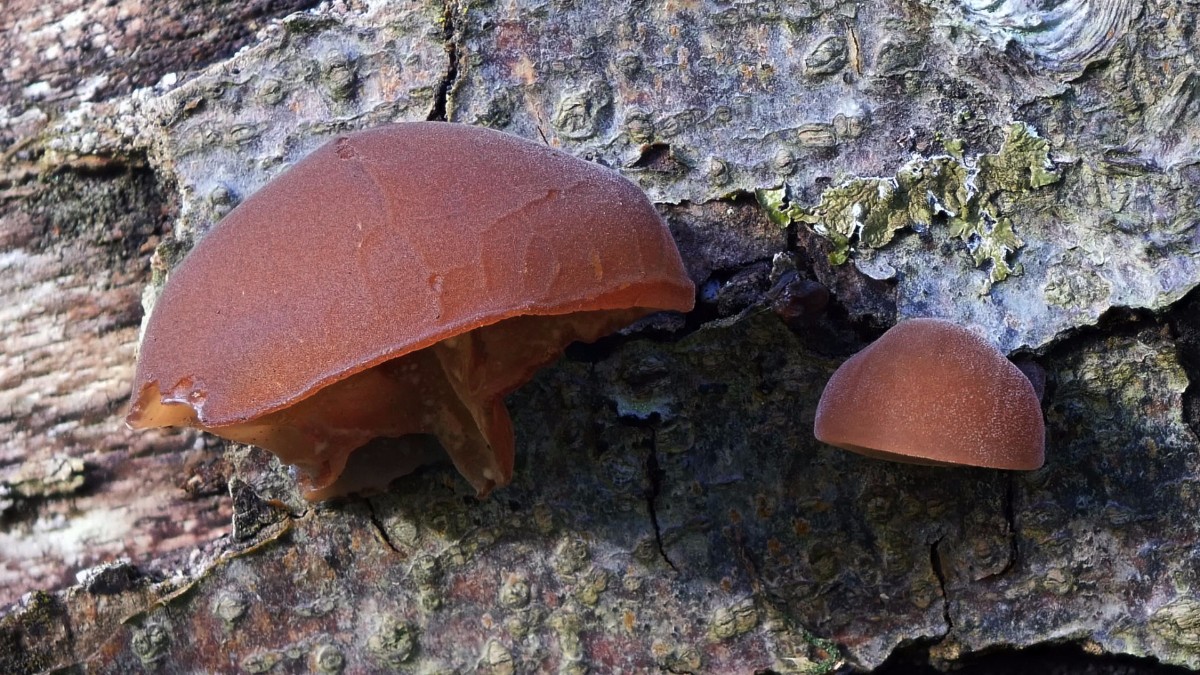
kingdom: Fungi
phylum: Basidiomycota
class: Agaricomycetes
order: Auriculariales
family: Auriculariaceae
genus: Auricularia
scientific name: Auricularia auricula-judae
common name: almindelig judasøre
